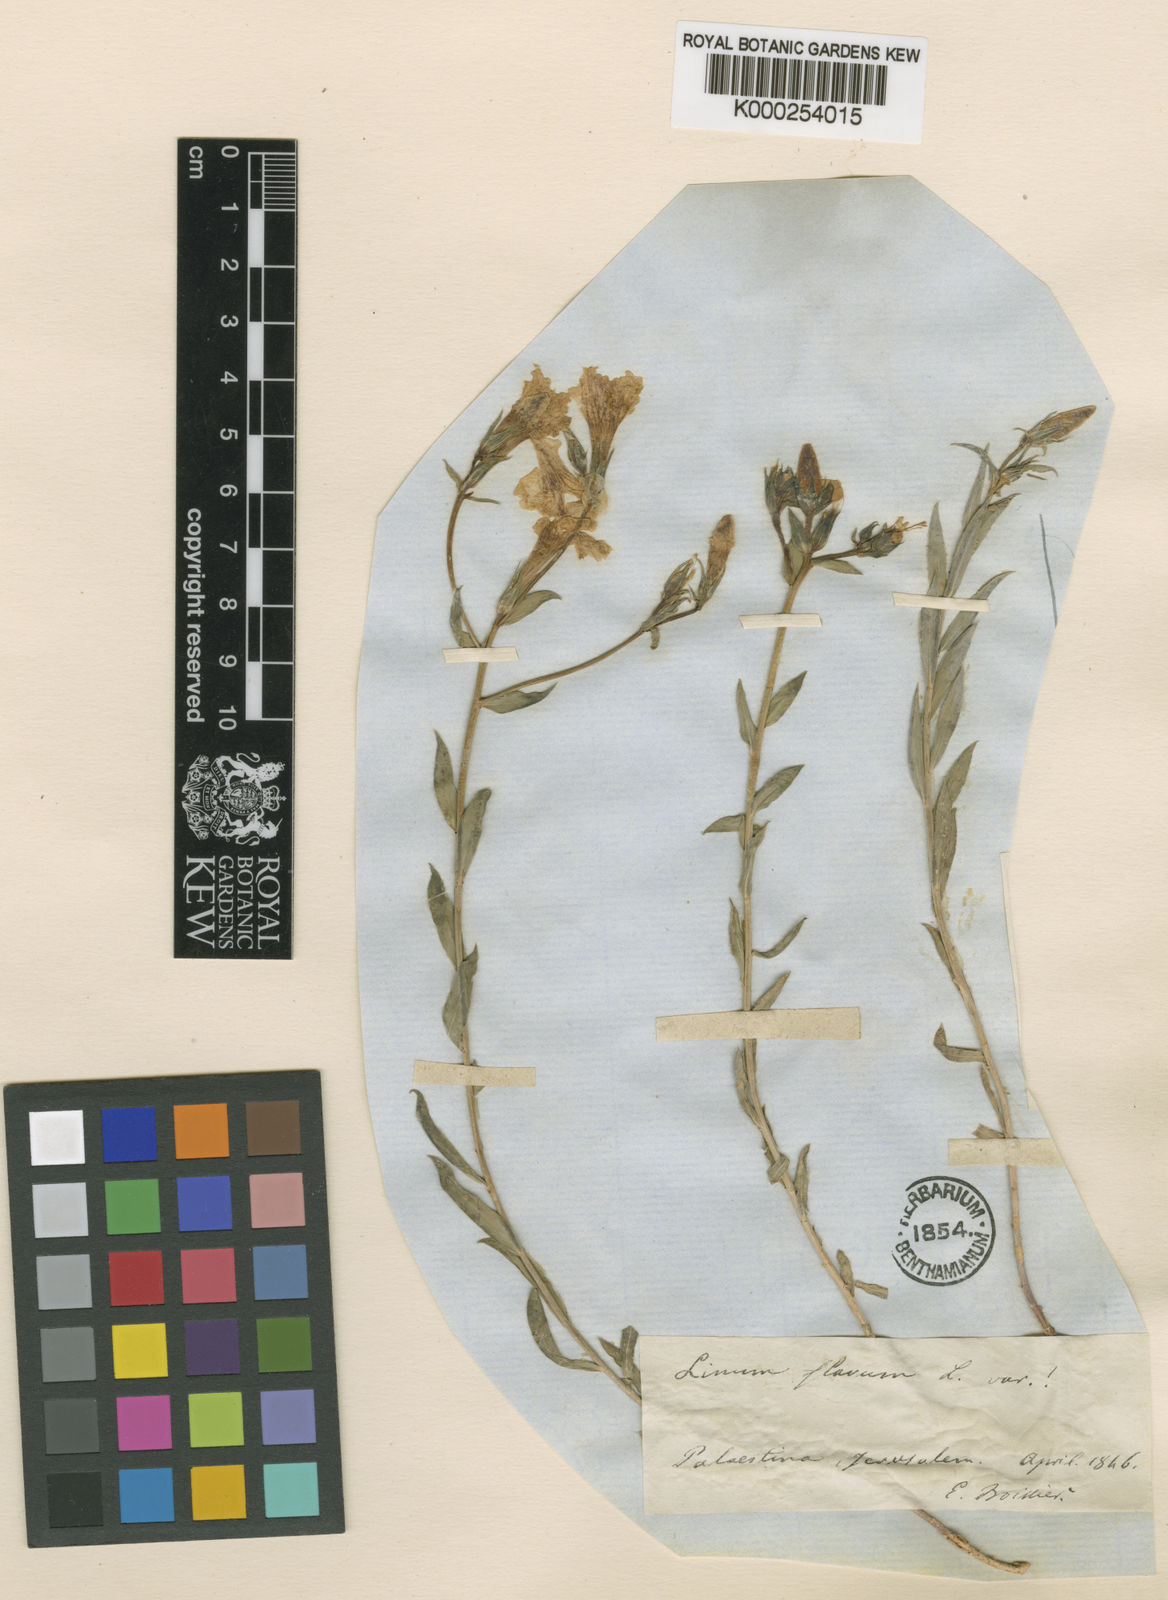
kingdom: Plantae
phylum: Tracheophyta
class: Magnoliopsida
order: Malpighiales
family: Linaceae
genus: Linum
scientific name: Linum mucronatum
